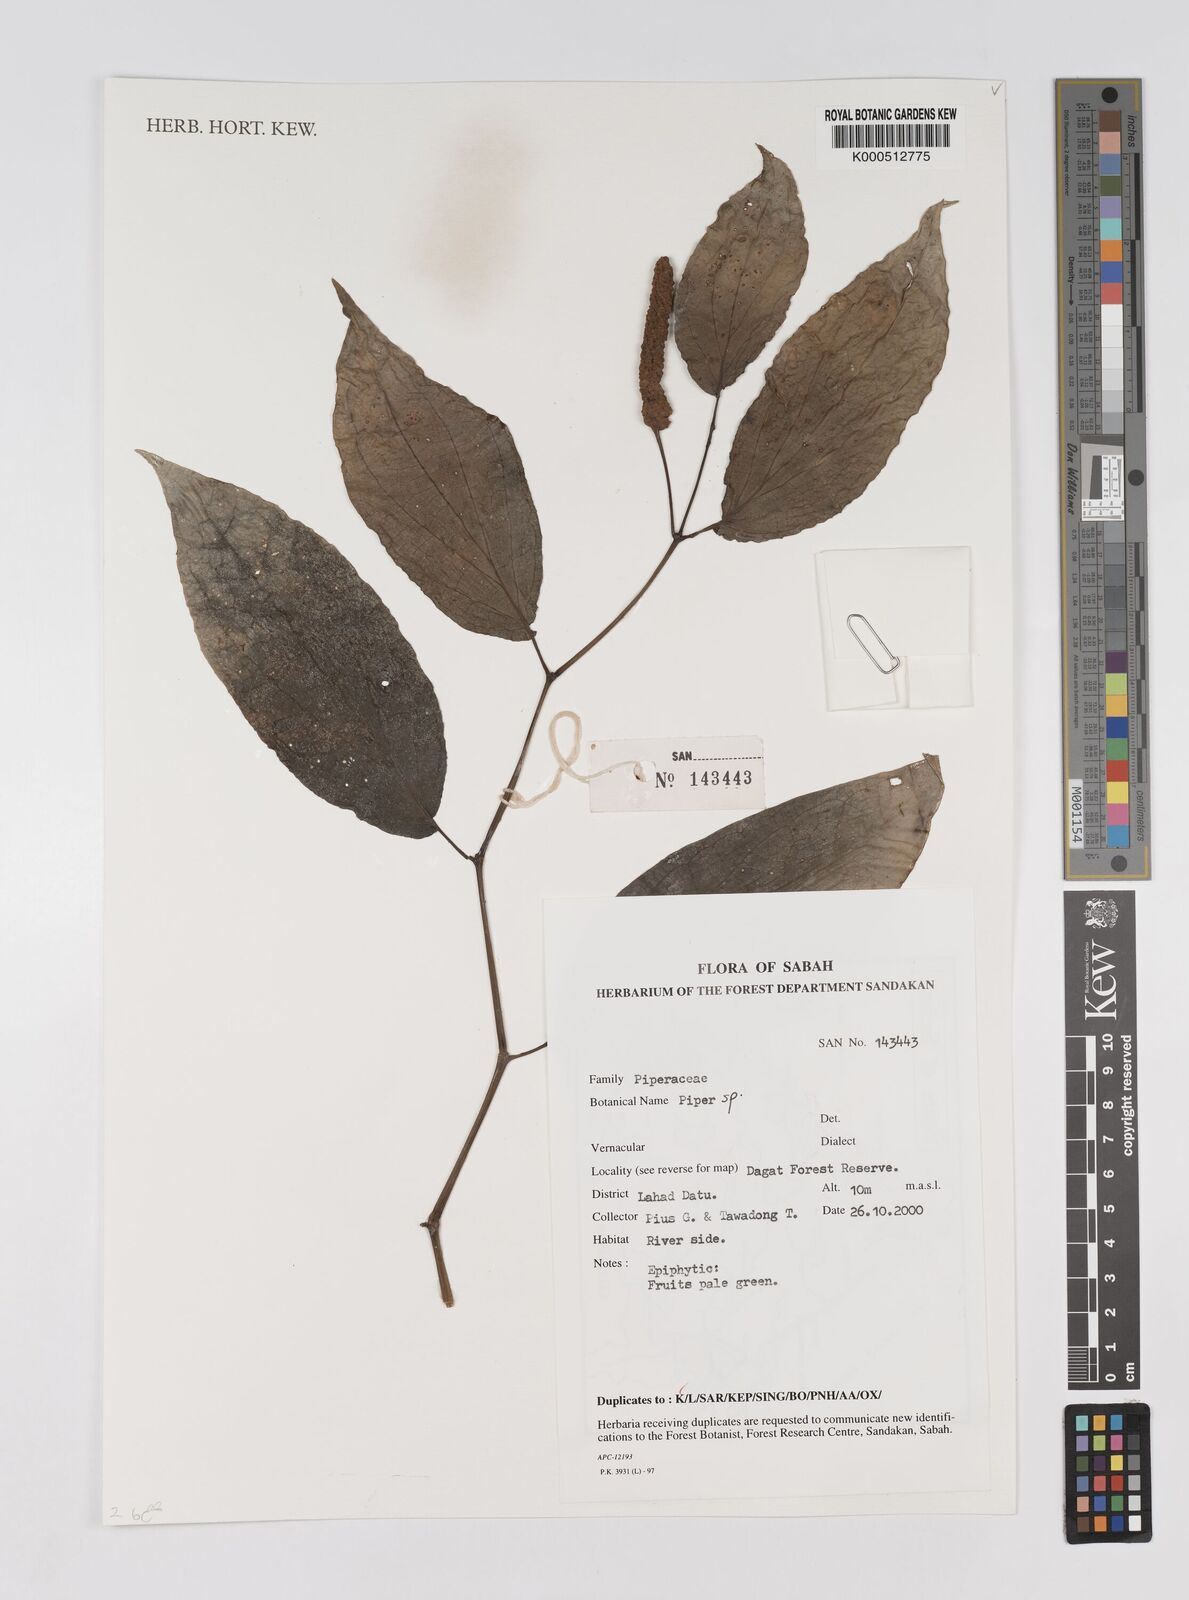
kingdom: Plantae
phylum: Tracheophyta
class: Magnoliopsida
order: Piperales
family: Piperaceae
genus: Piper
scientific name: Piper
